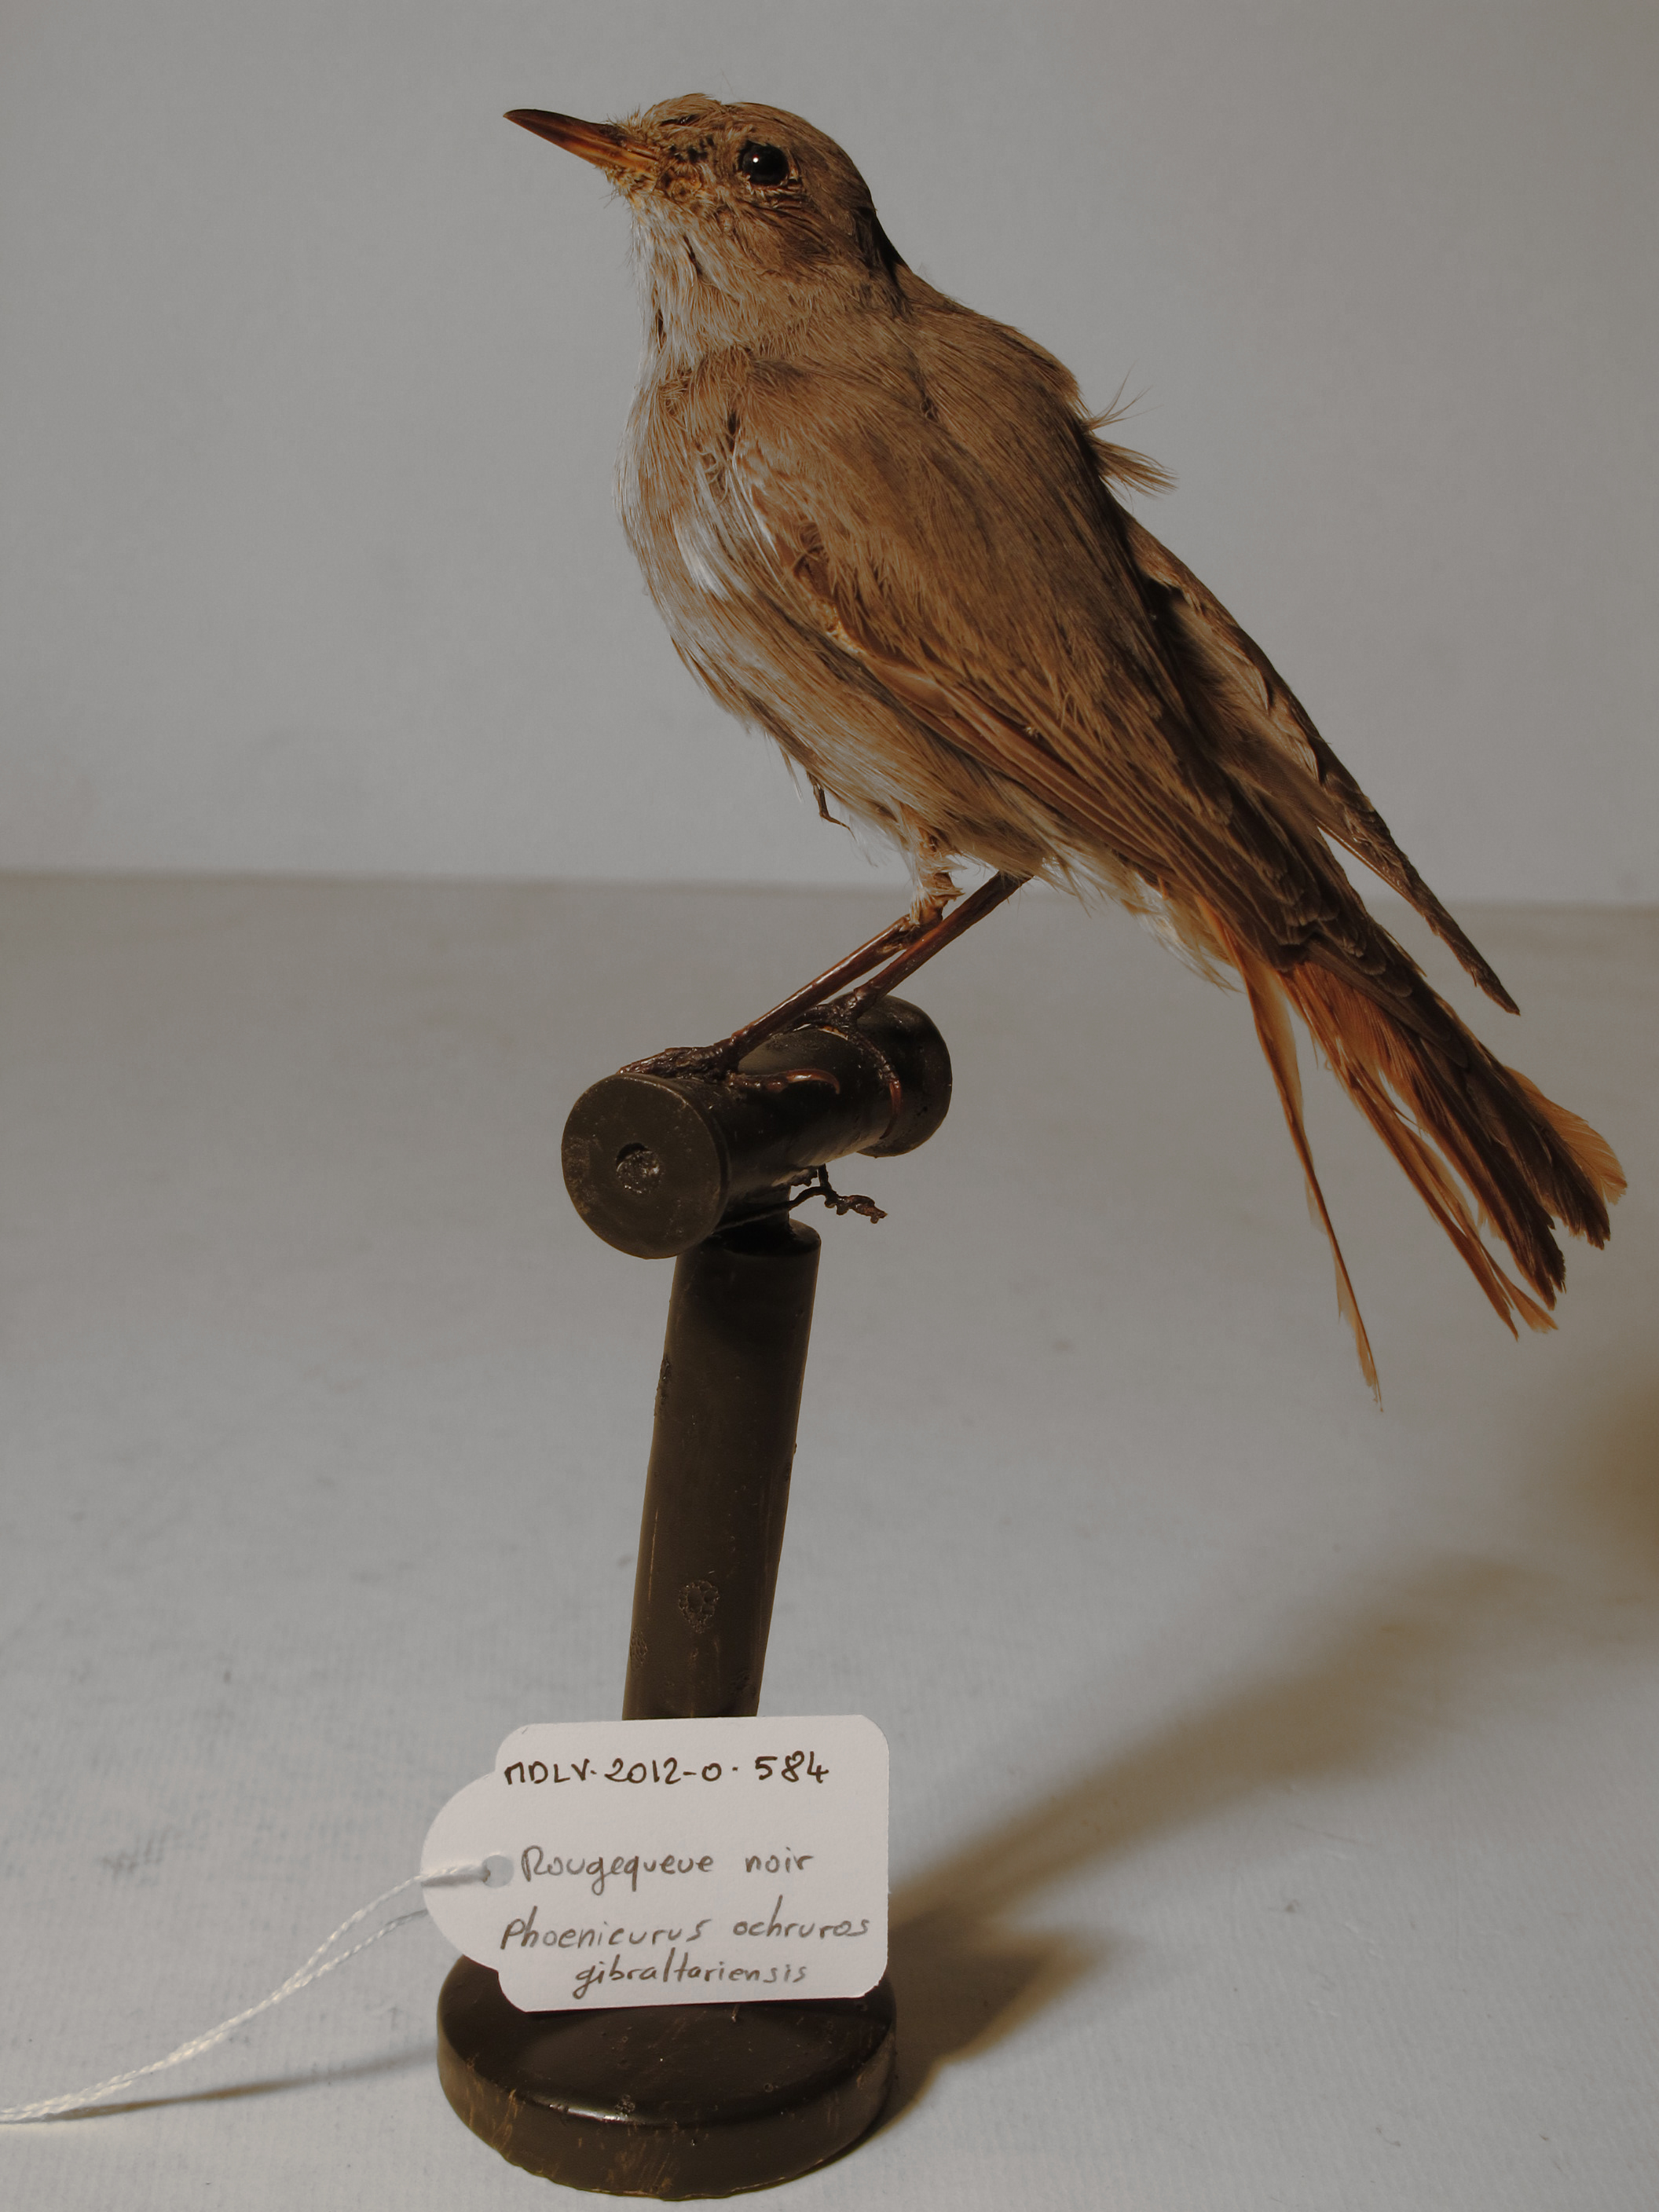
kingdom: Animalia
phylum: Chordata
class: Aves
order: Passeriformes
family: Muscicapidae
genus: Phoenicurus
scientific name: Phoenicurus ochruros
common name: Black Redstart
